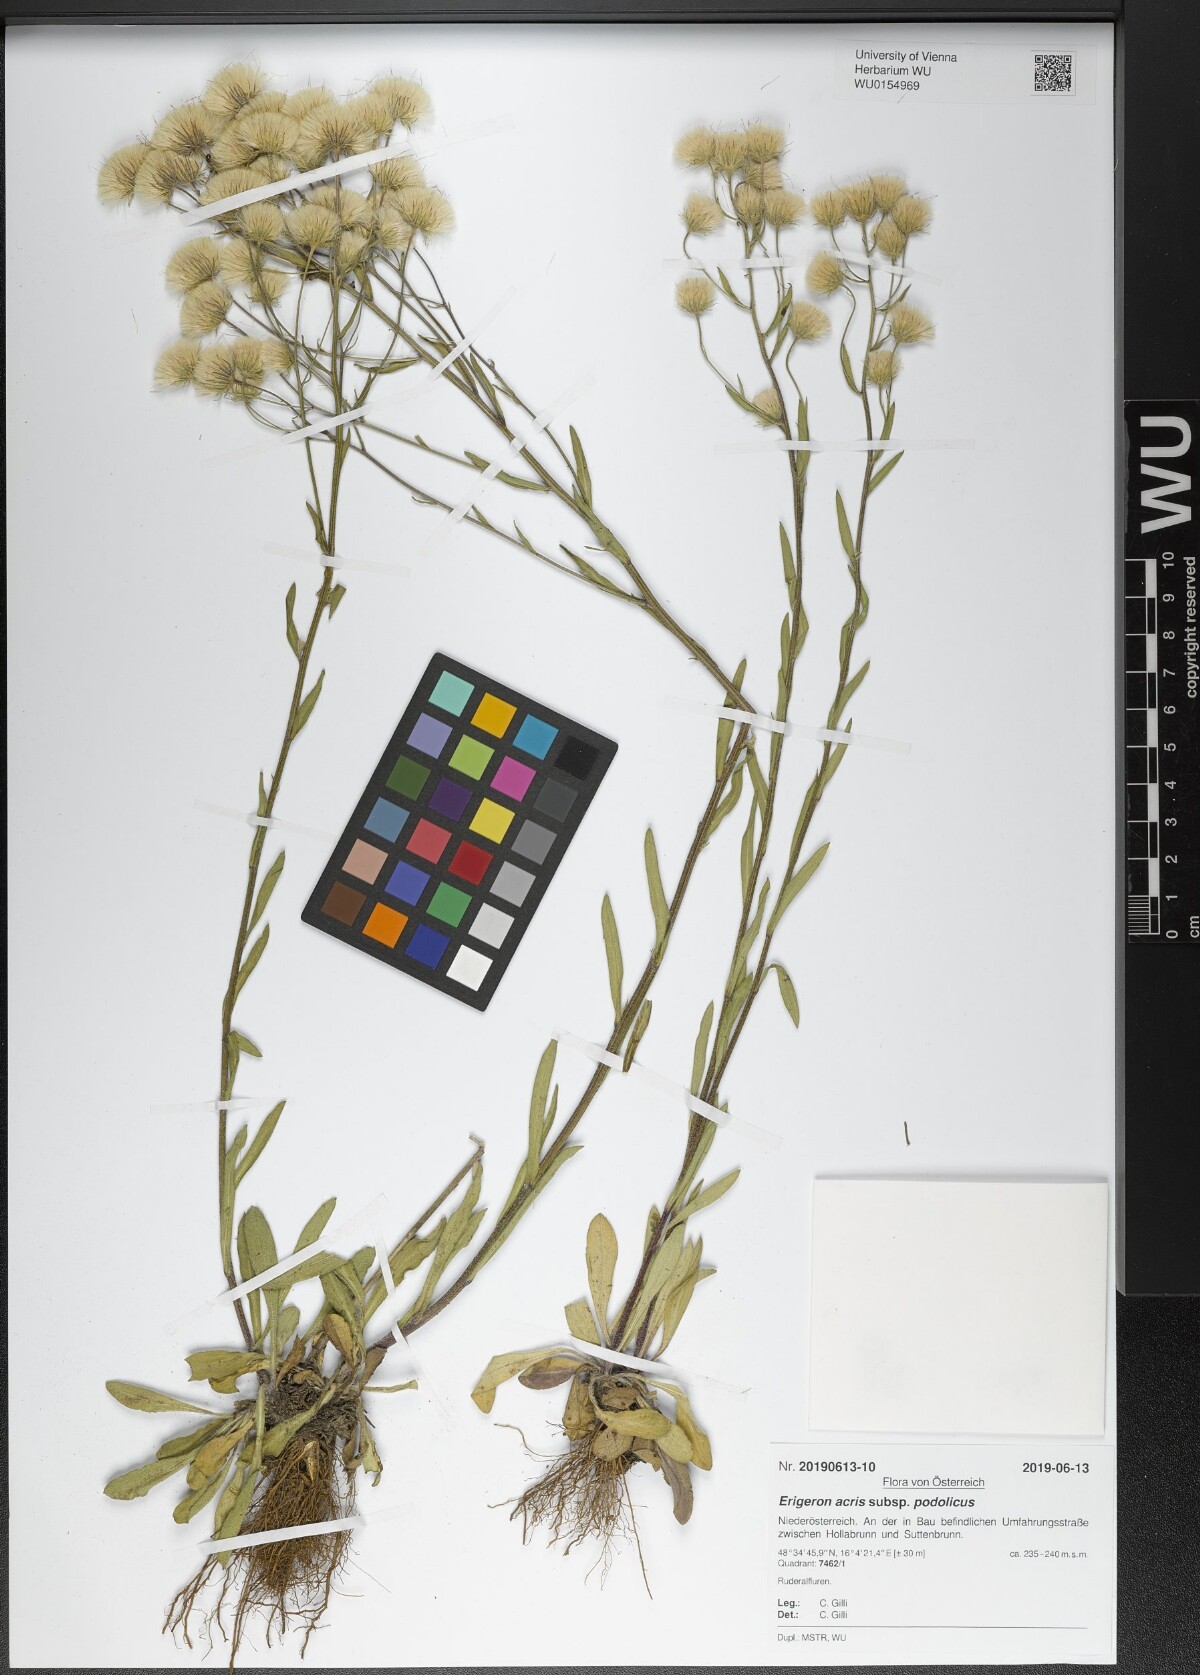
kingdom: Plantae
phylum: Tracheophyta
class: Magnoliopsida
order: Asterales
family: Asteraceae
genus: Erigeron
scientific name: Erigeron podolicus
